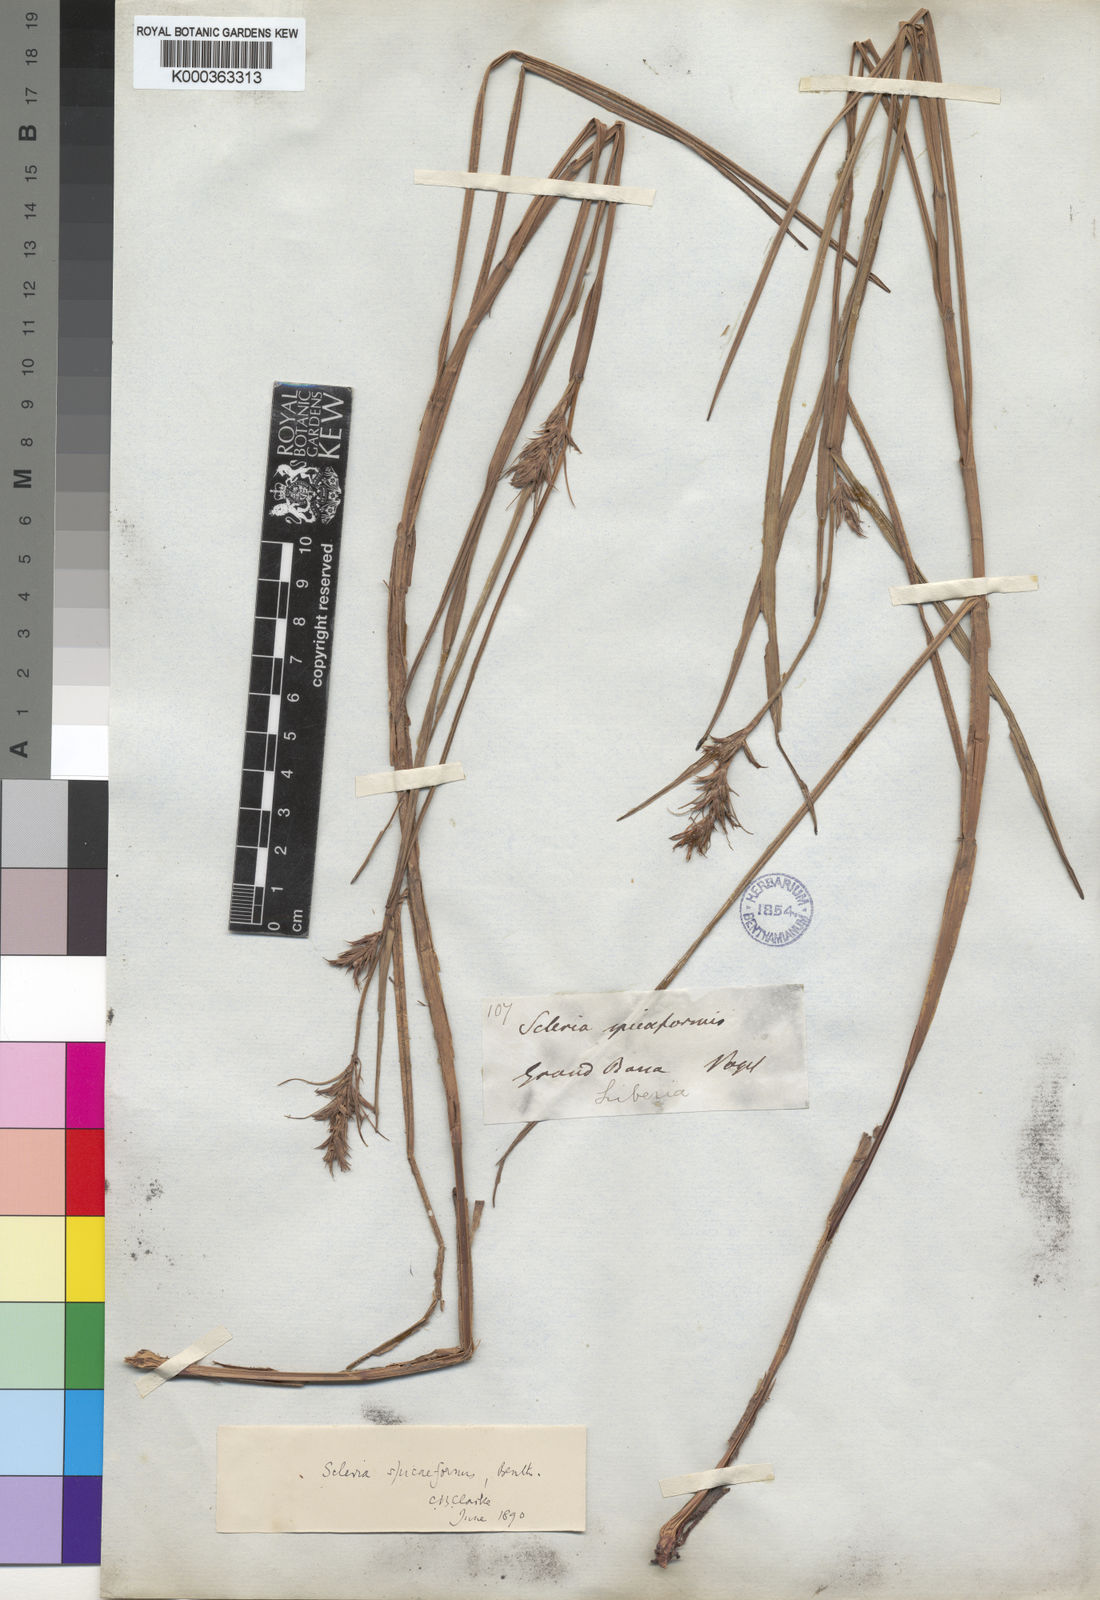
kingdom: Plantae
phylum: Tracheophyta
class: Liliopsida
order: Poales
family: Cyperaceae
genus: Scleria
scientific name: Scleria spiciformis
